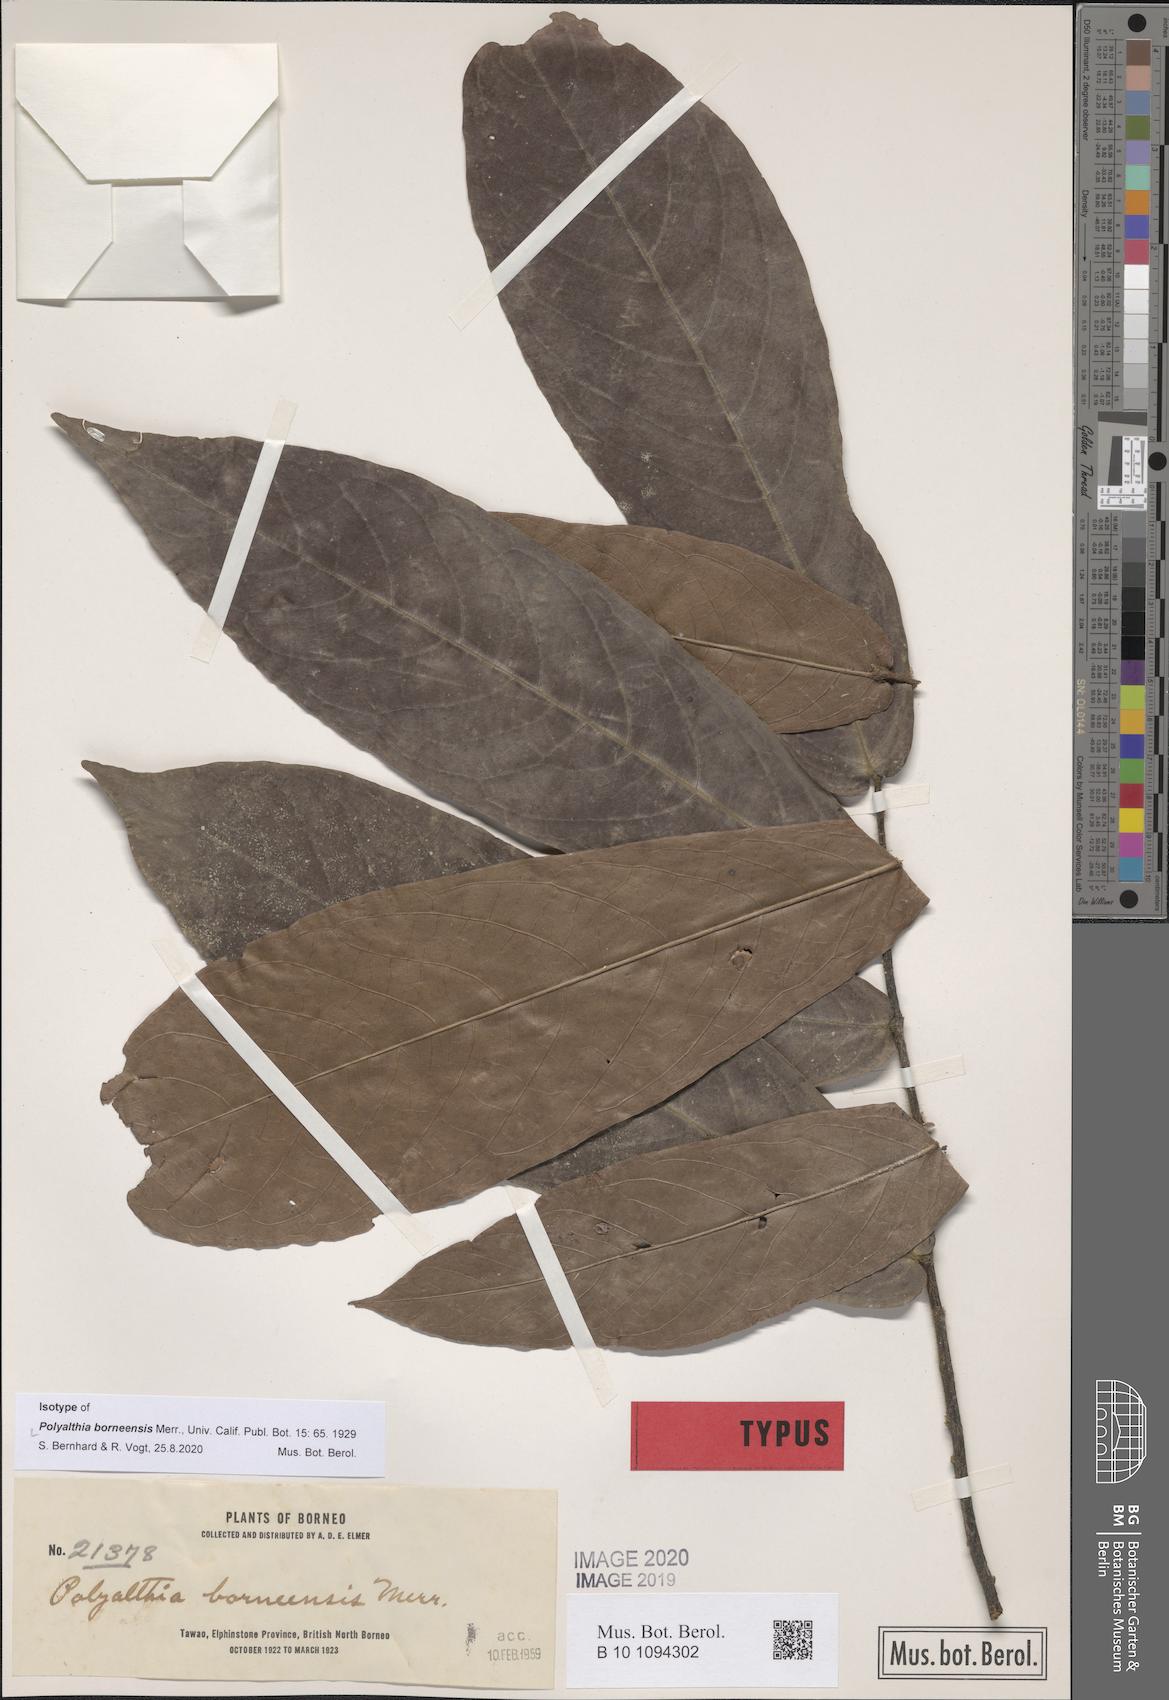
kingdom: Plantae
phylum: Tracheophyta
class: Magnoliopsida
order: Magnoliales
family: Annonaceae
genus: Polyalthia
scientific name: Polyalthia borneensis
